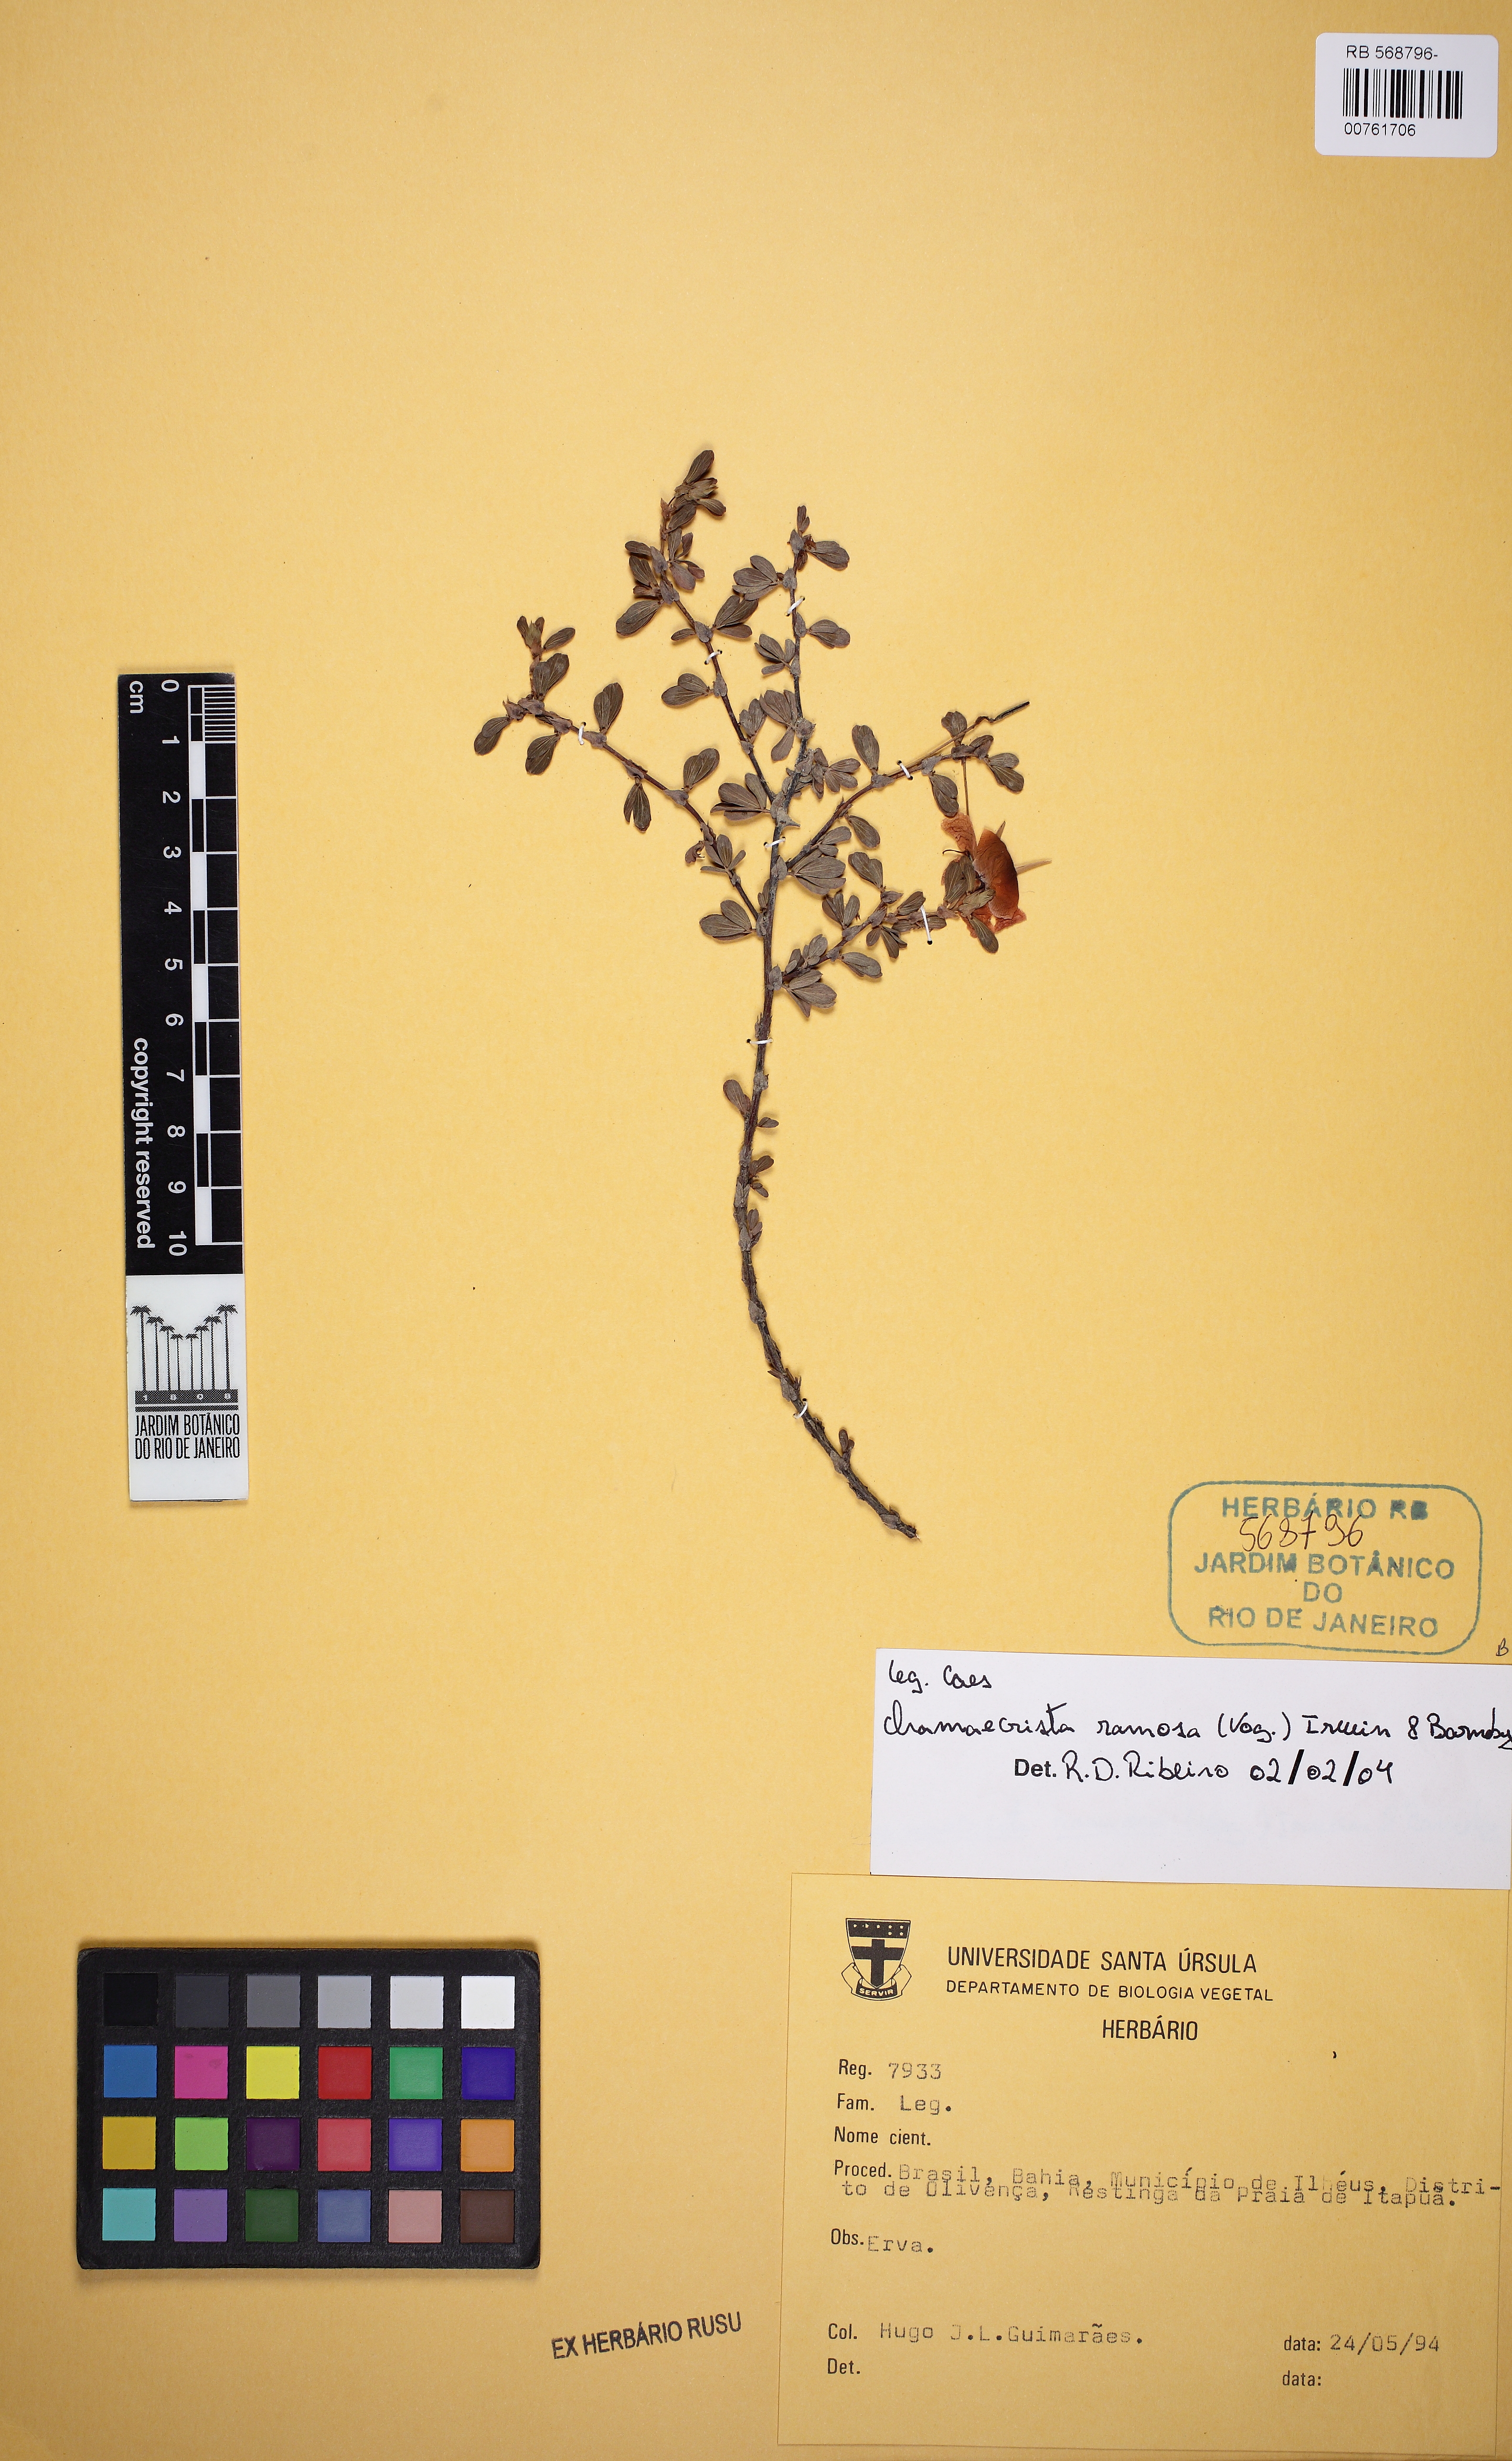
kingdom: Plantae
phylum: Tracheophyta
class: Magnoliopsida
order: Fabales
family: Fabaceae
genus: Chamaecrista
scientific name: Chamaecrista ramosa
